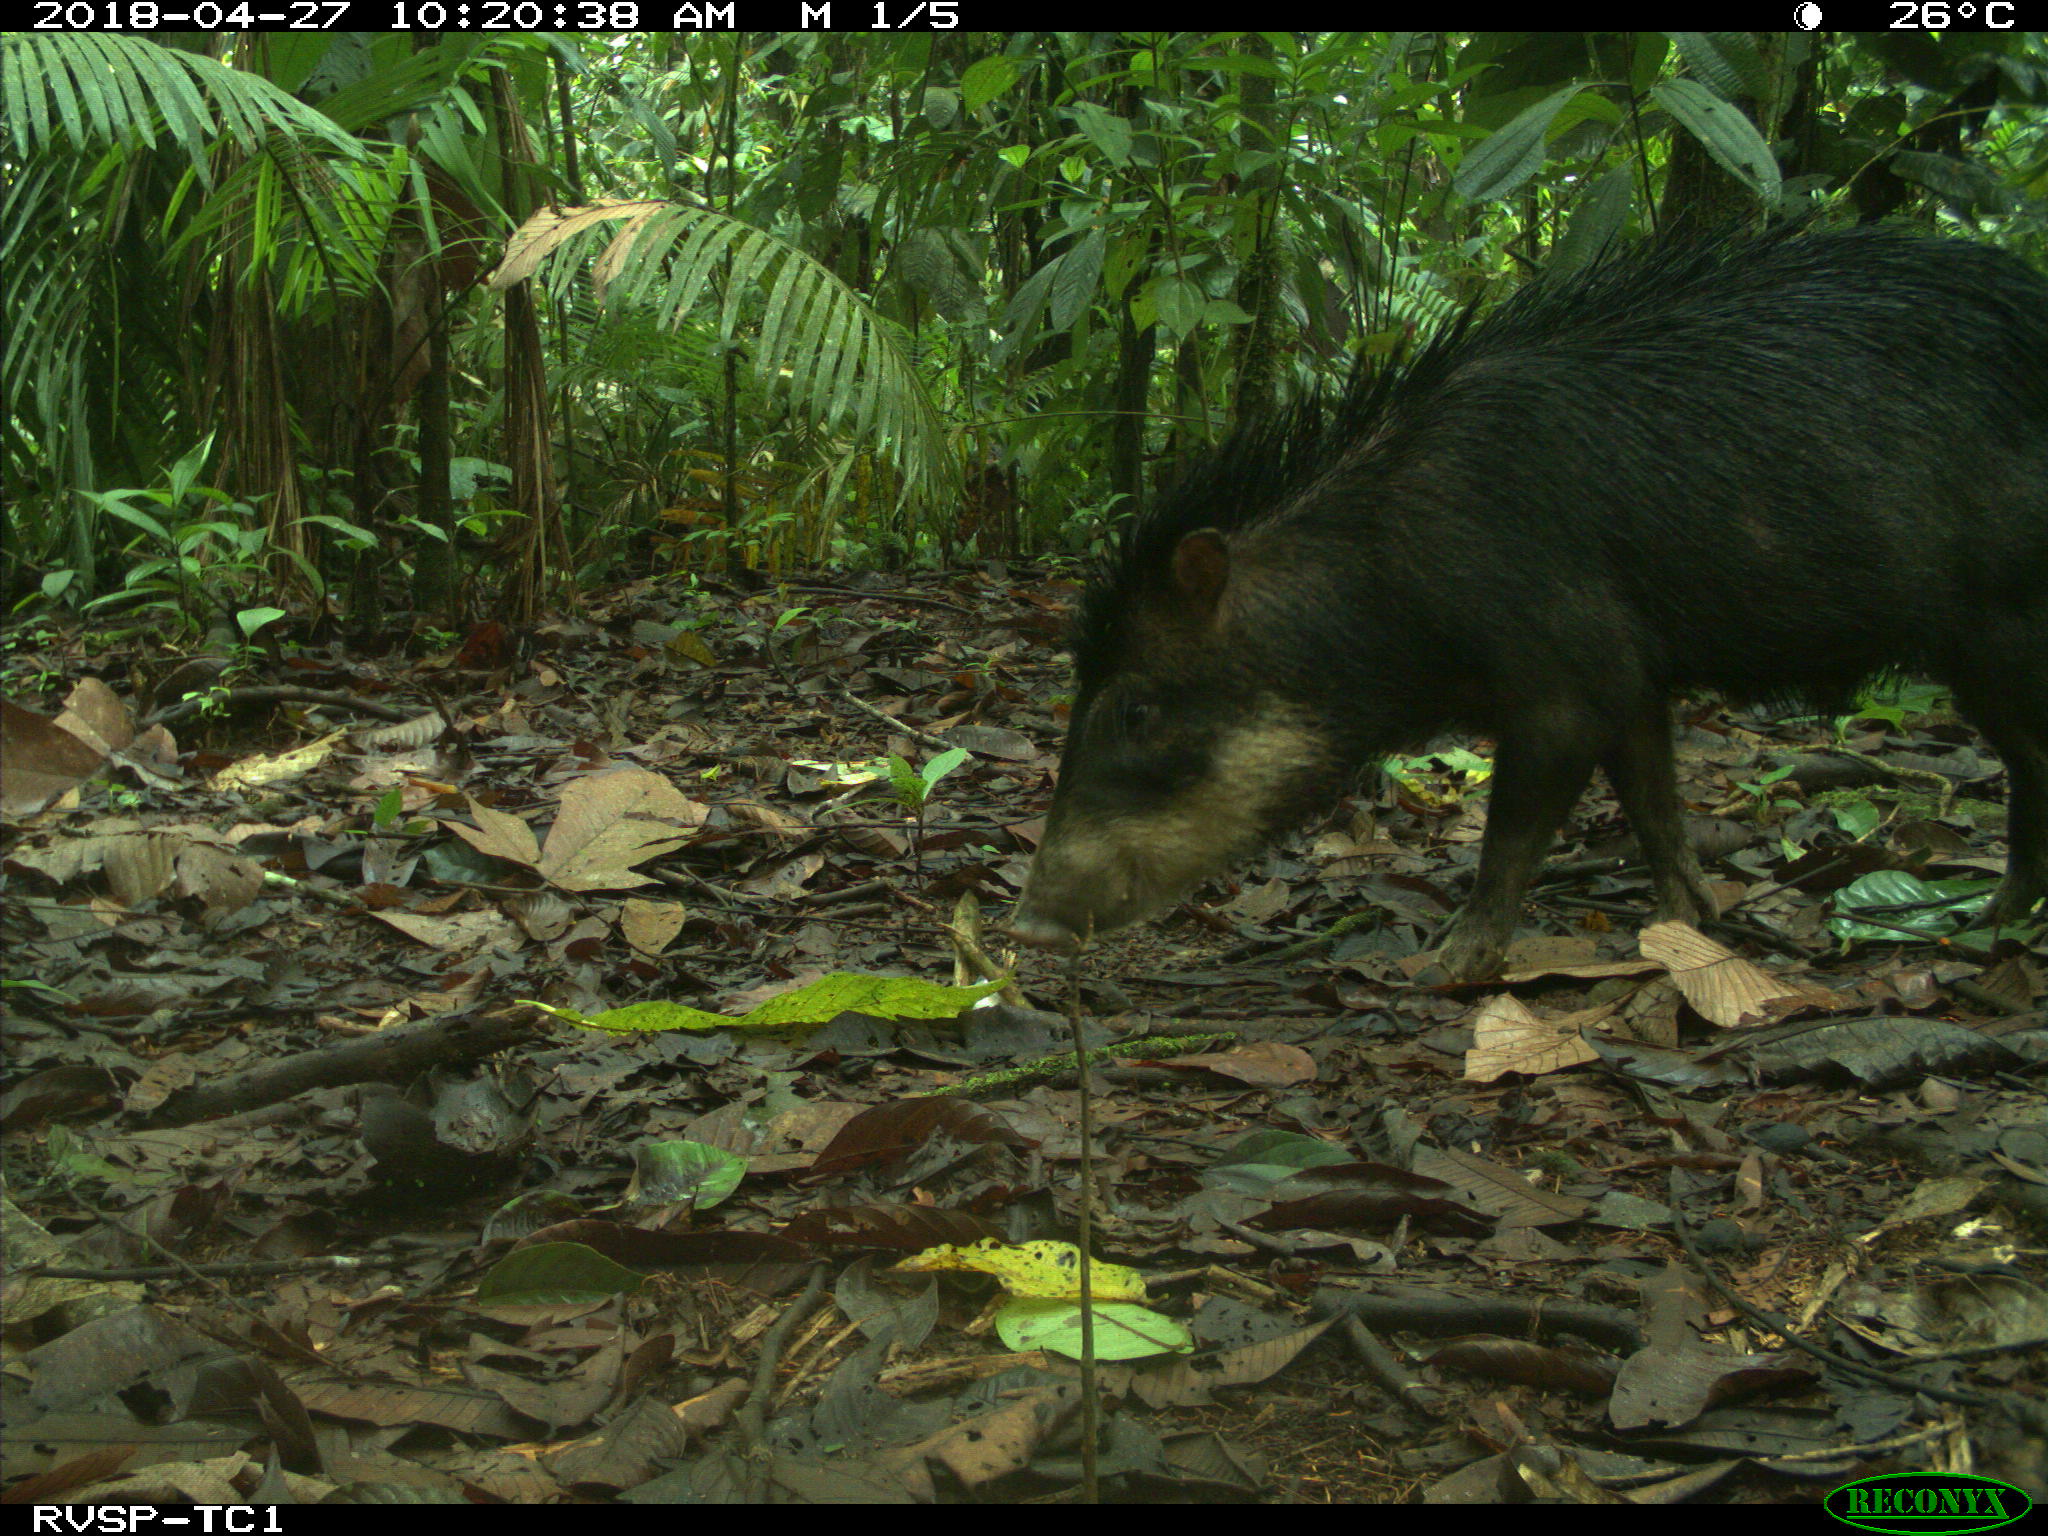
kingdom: Animalia
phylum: Chordata
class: Mammalia
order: Artiodactyla
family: Tayassuidae
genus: Tayassu
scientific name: Tayassu pecari
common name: White-lipped peccary
